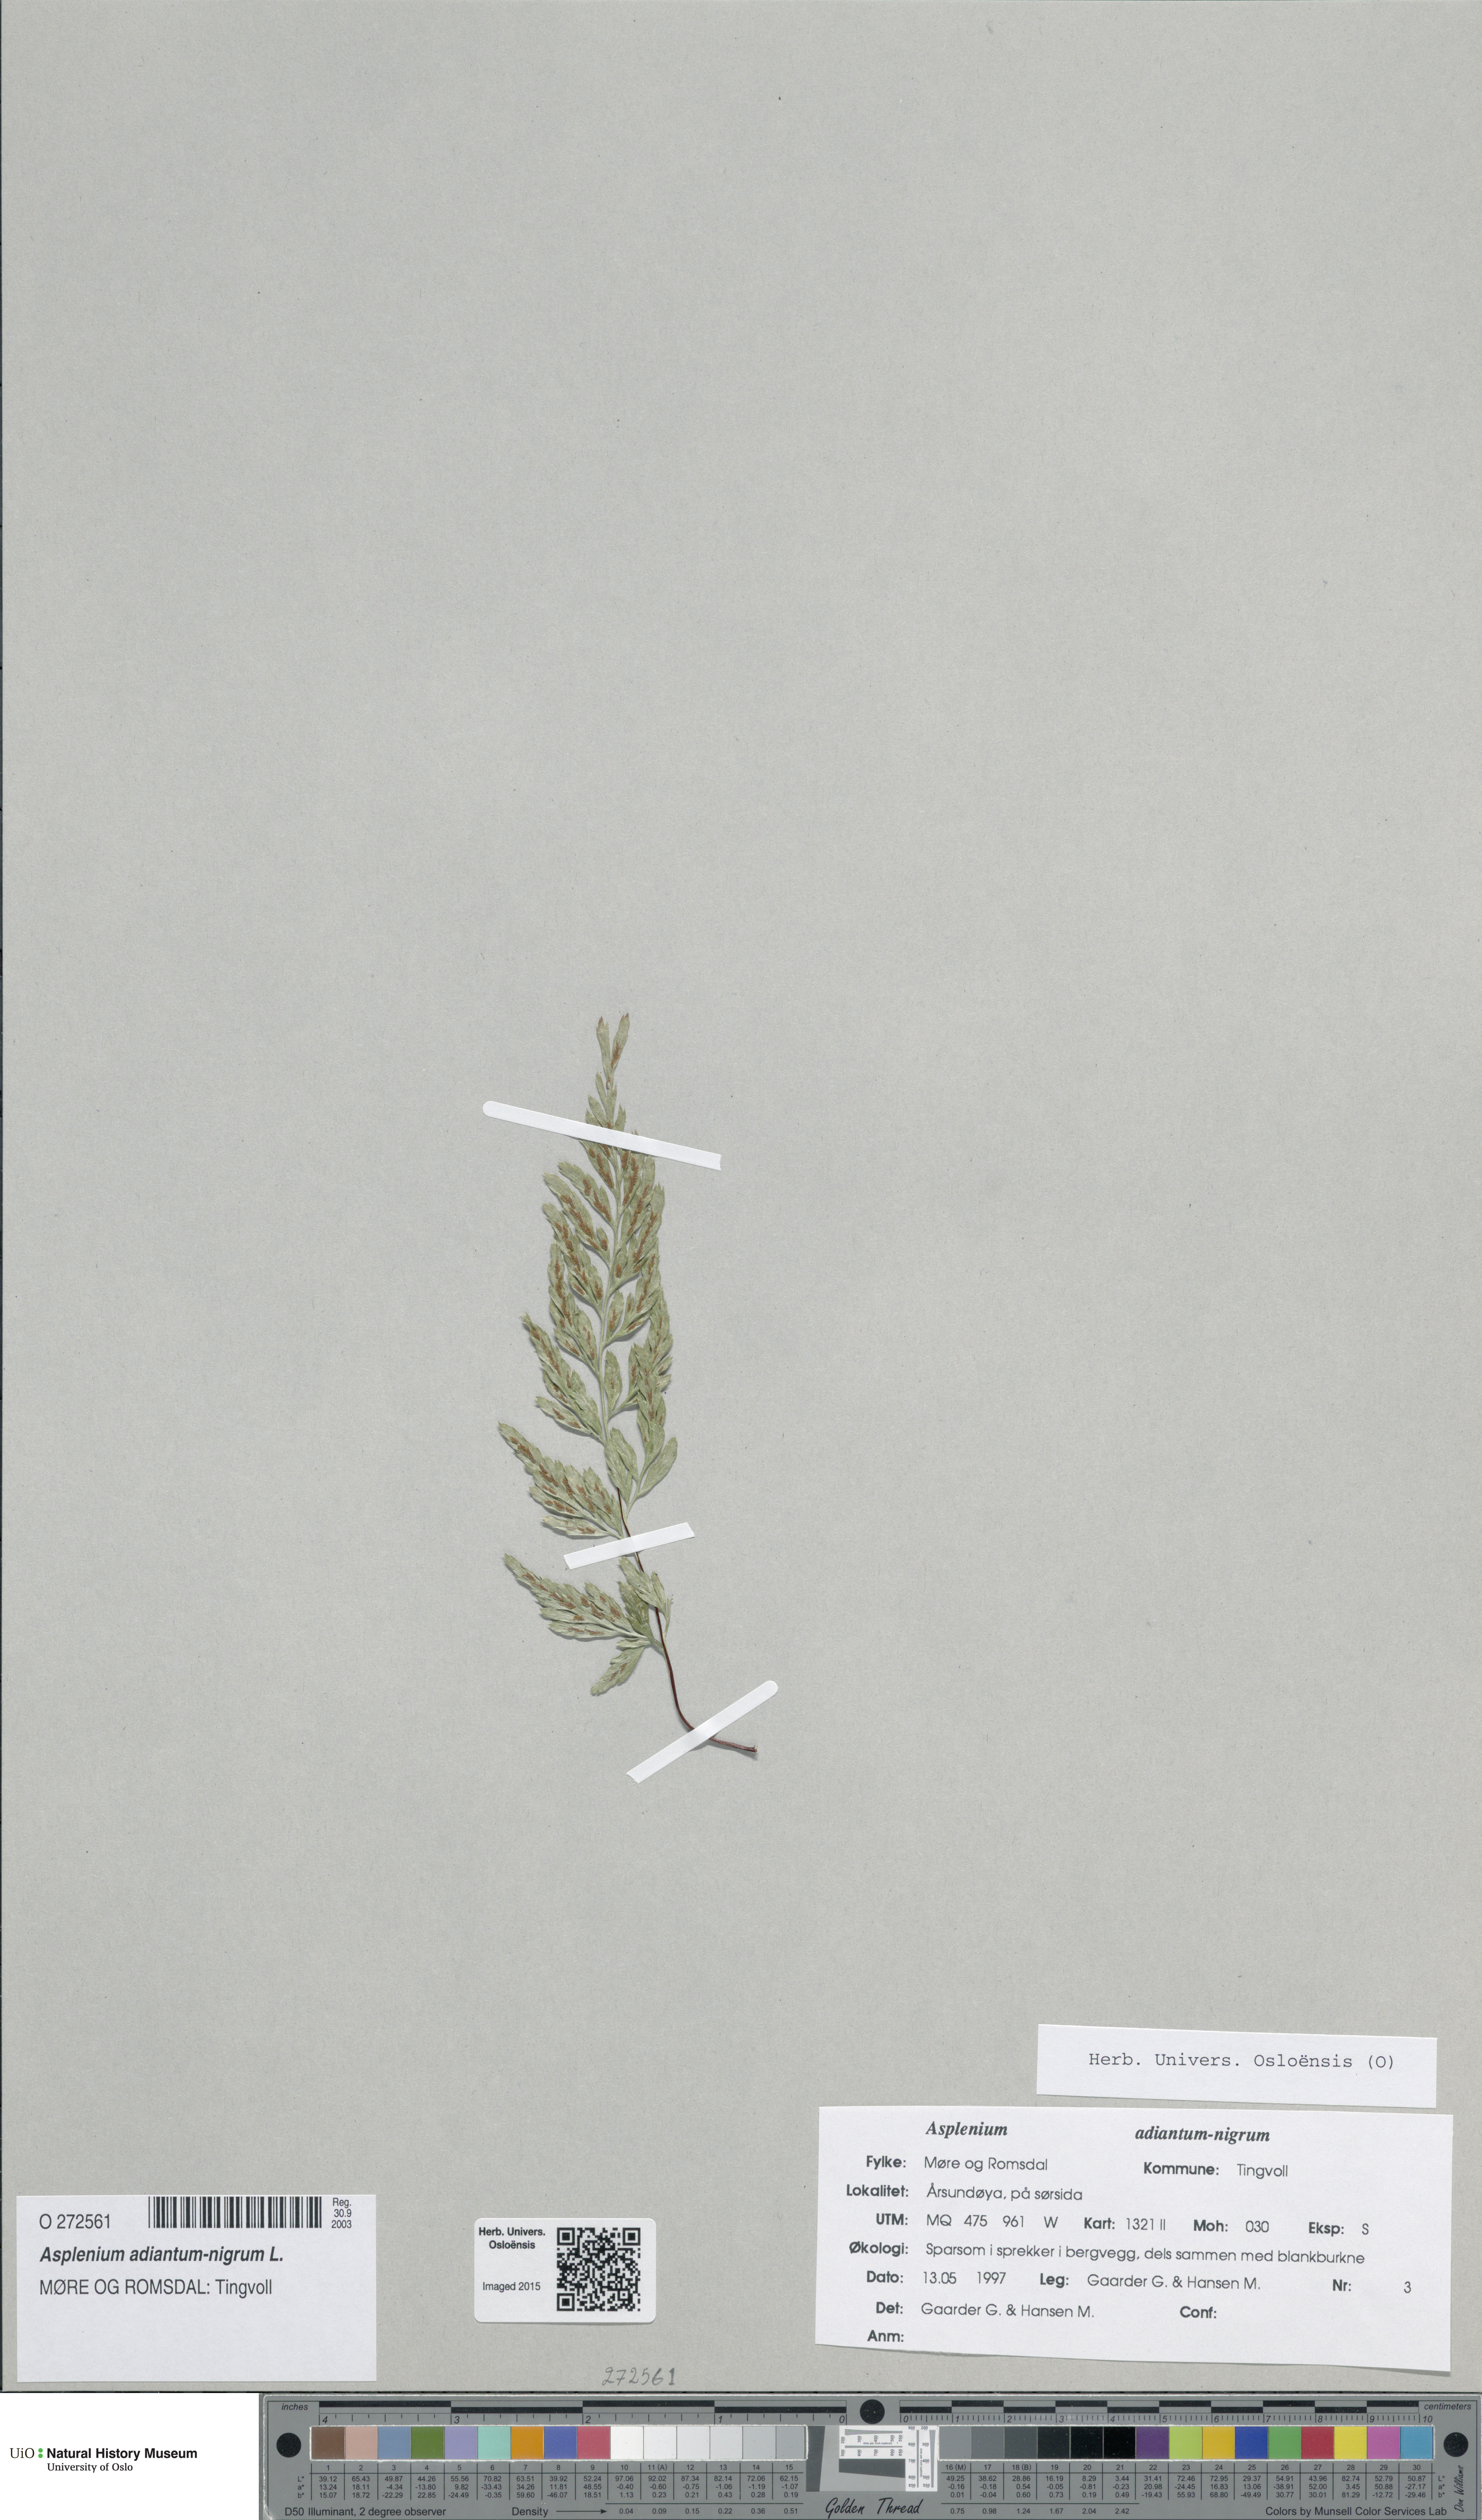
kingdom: Plantae
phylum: Tracheophyta
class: Polypodiopsida
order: Polypodiales
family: Aspleniaceae
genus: Asplenium
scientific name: Asplenium adiantum-nigrum
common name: Black spleenwort
